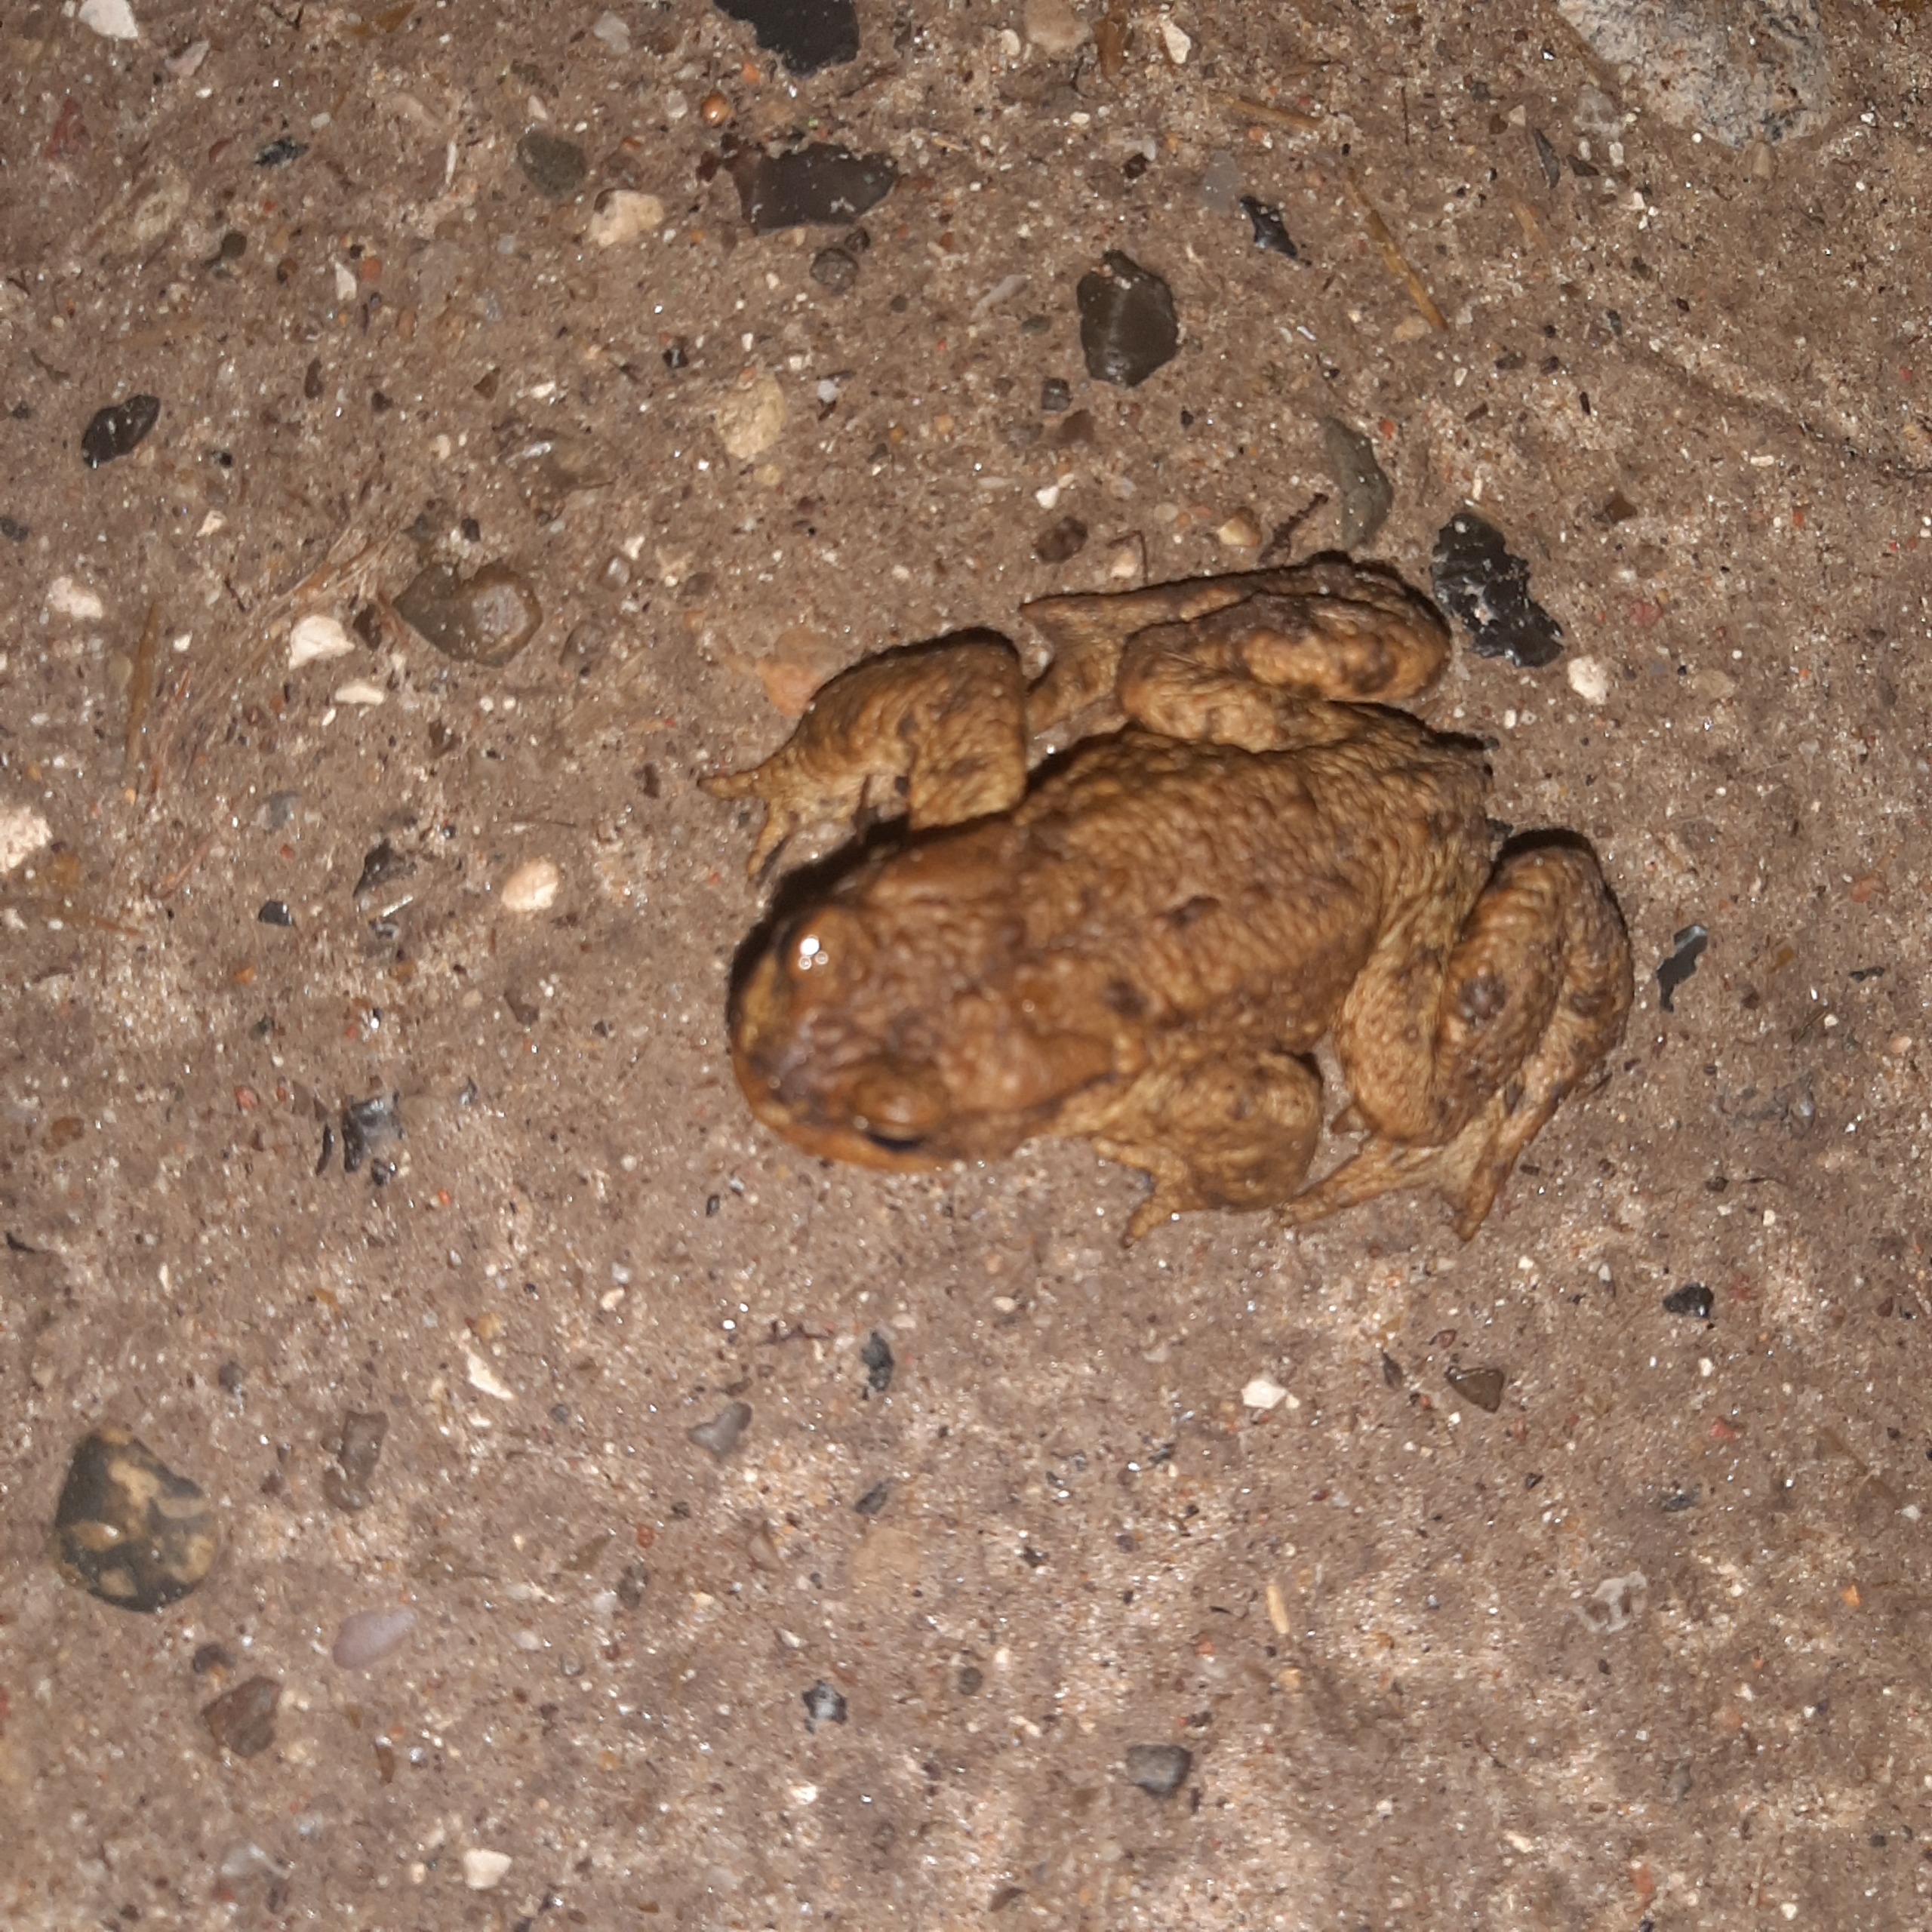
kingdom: Animalia
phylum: Chordata
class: Amphibia
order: Anura
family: Bufonidae
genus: Bufo
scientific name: Bufo bufo
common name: Skrubtudse
